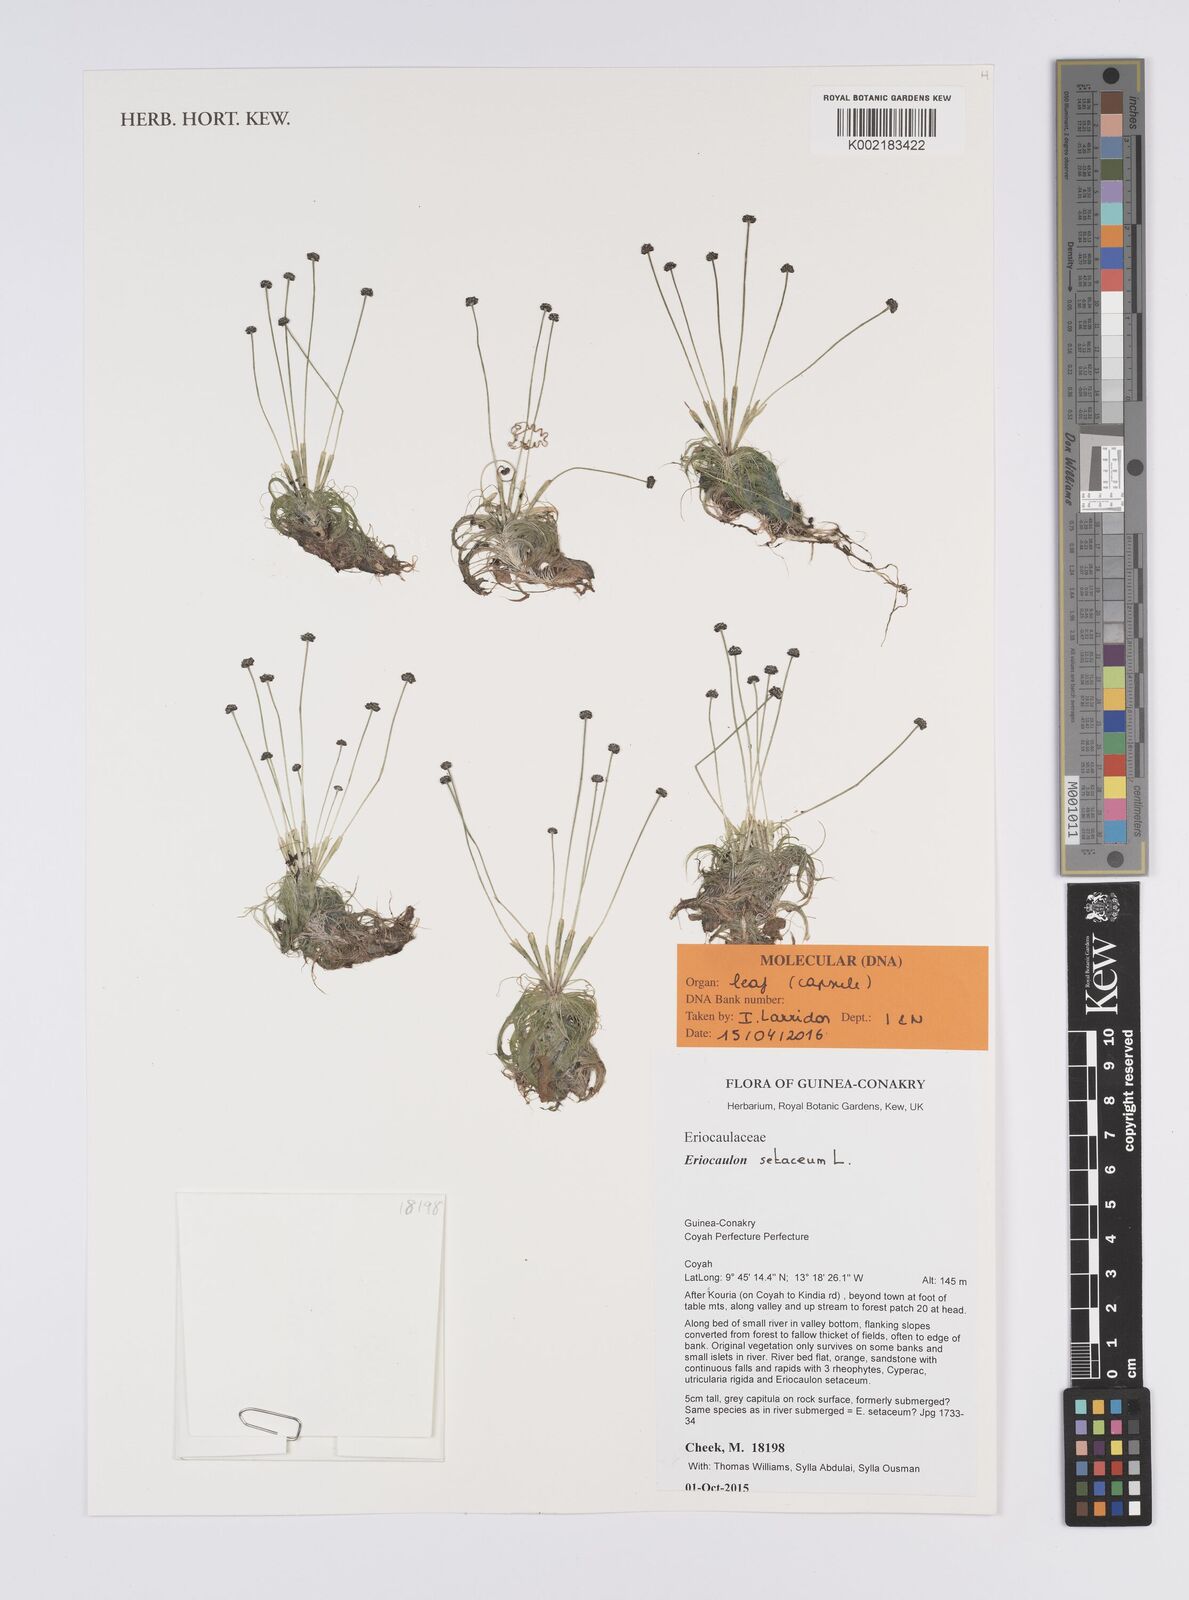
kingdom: Plantae
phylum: Tracheophyta
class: Liliopsida
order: Poales
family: Eriocaulaceae
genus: Eriocaulon
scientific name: Eriocaulon setaceum
